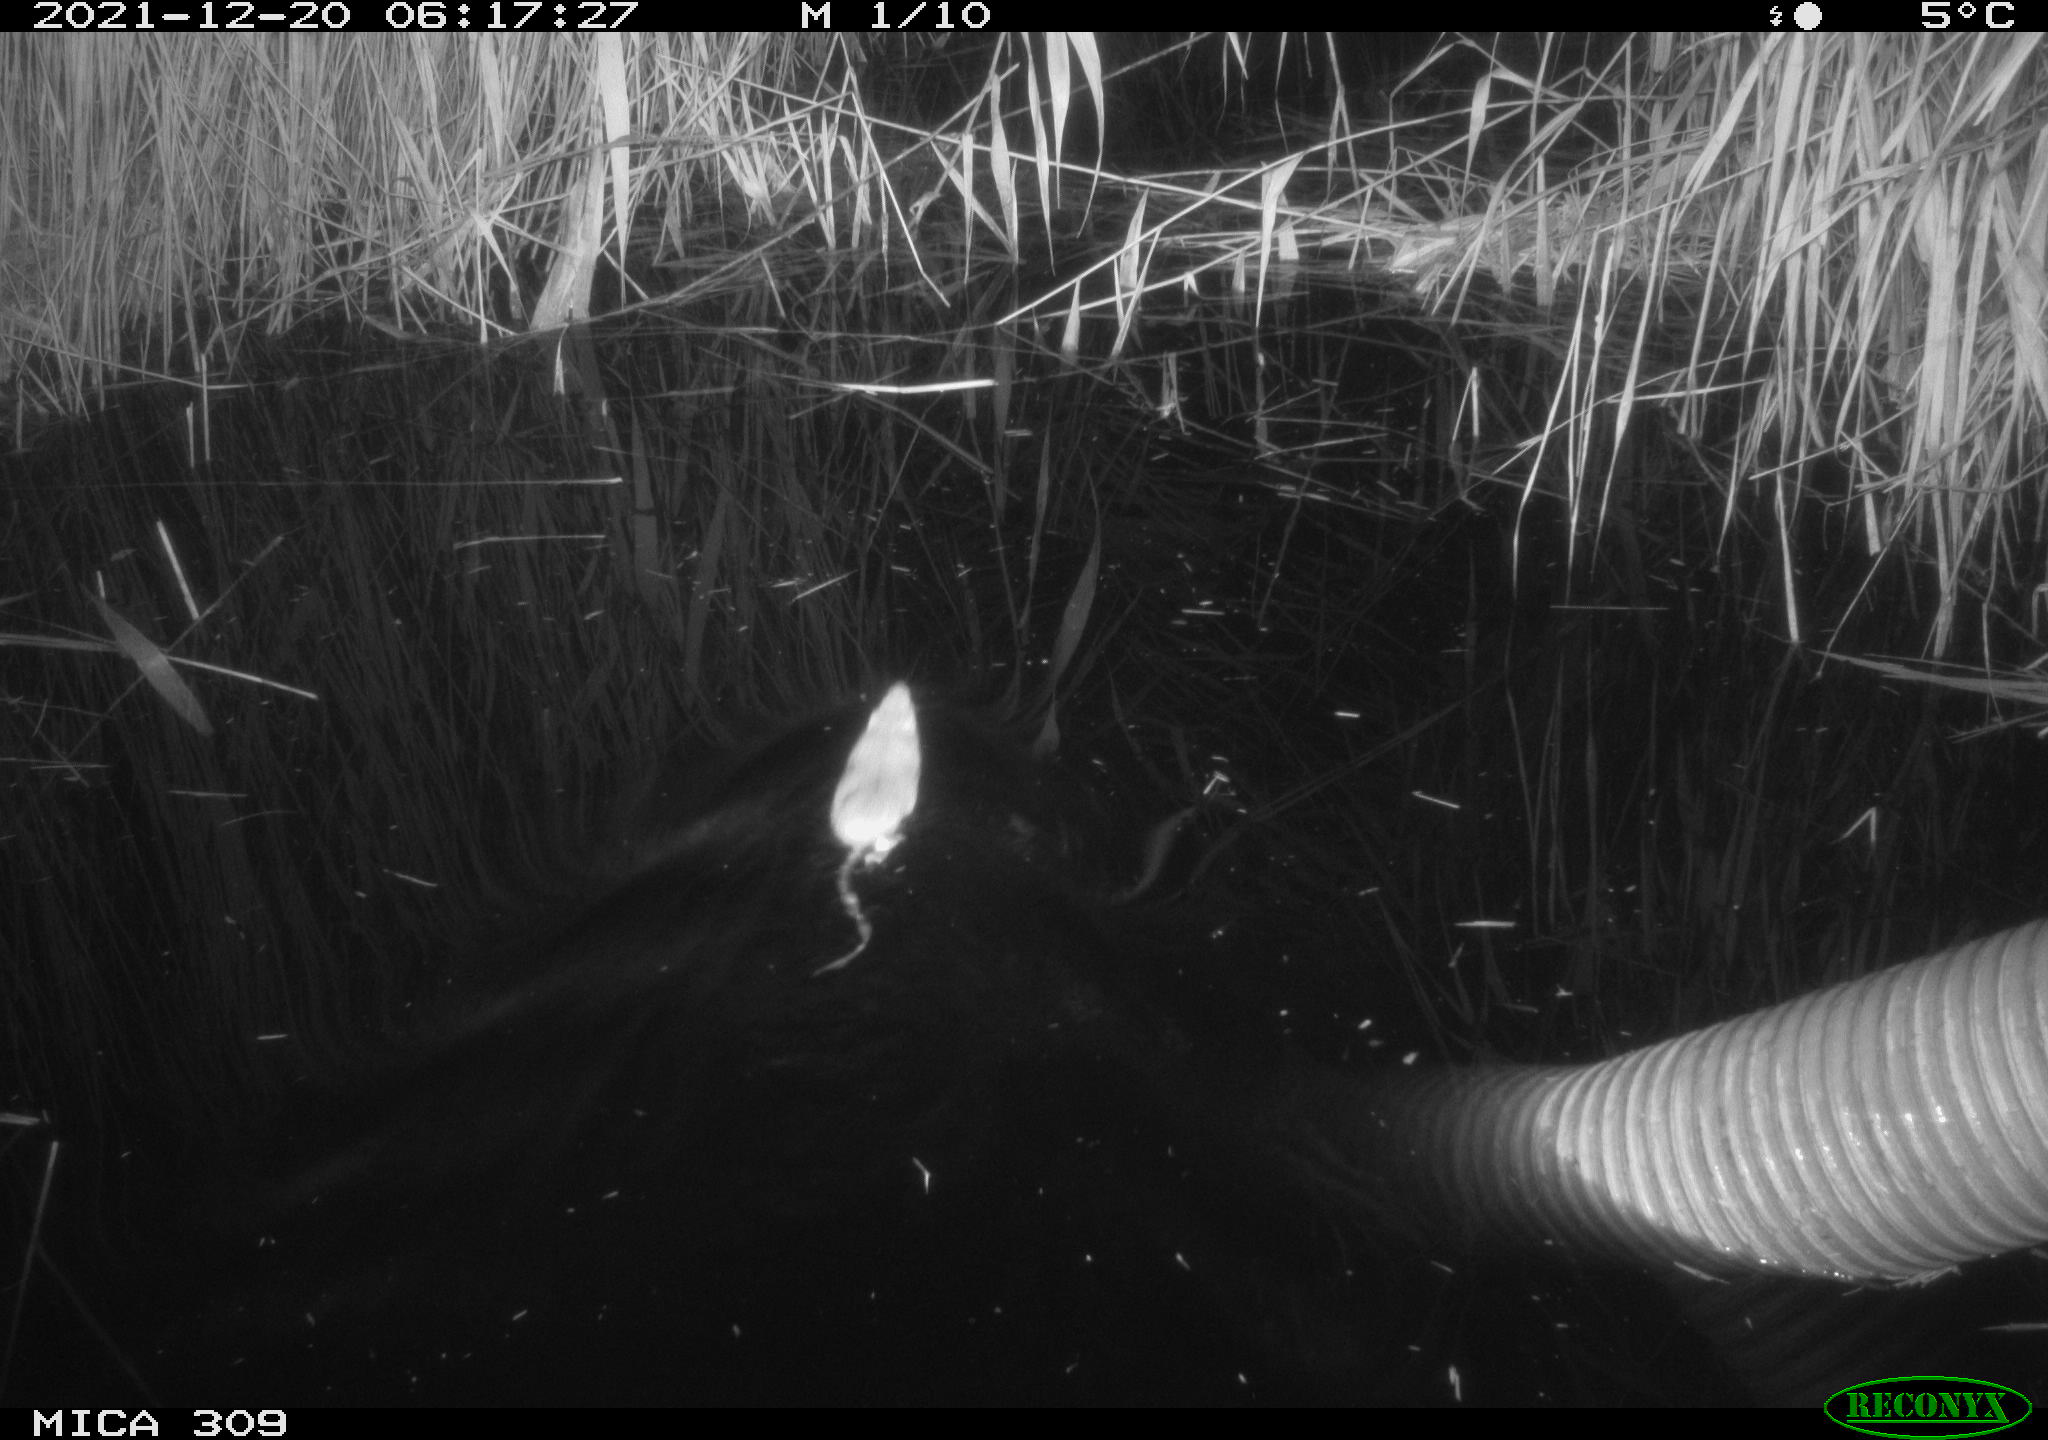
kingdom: Animalia
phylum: Chordata
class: Mammalia
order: Rodentia
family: Muridae
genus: Rattus
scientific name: Rattus norvegicus
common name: Brown rat
